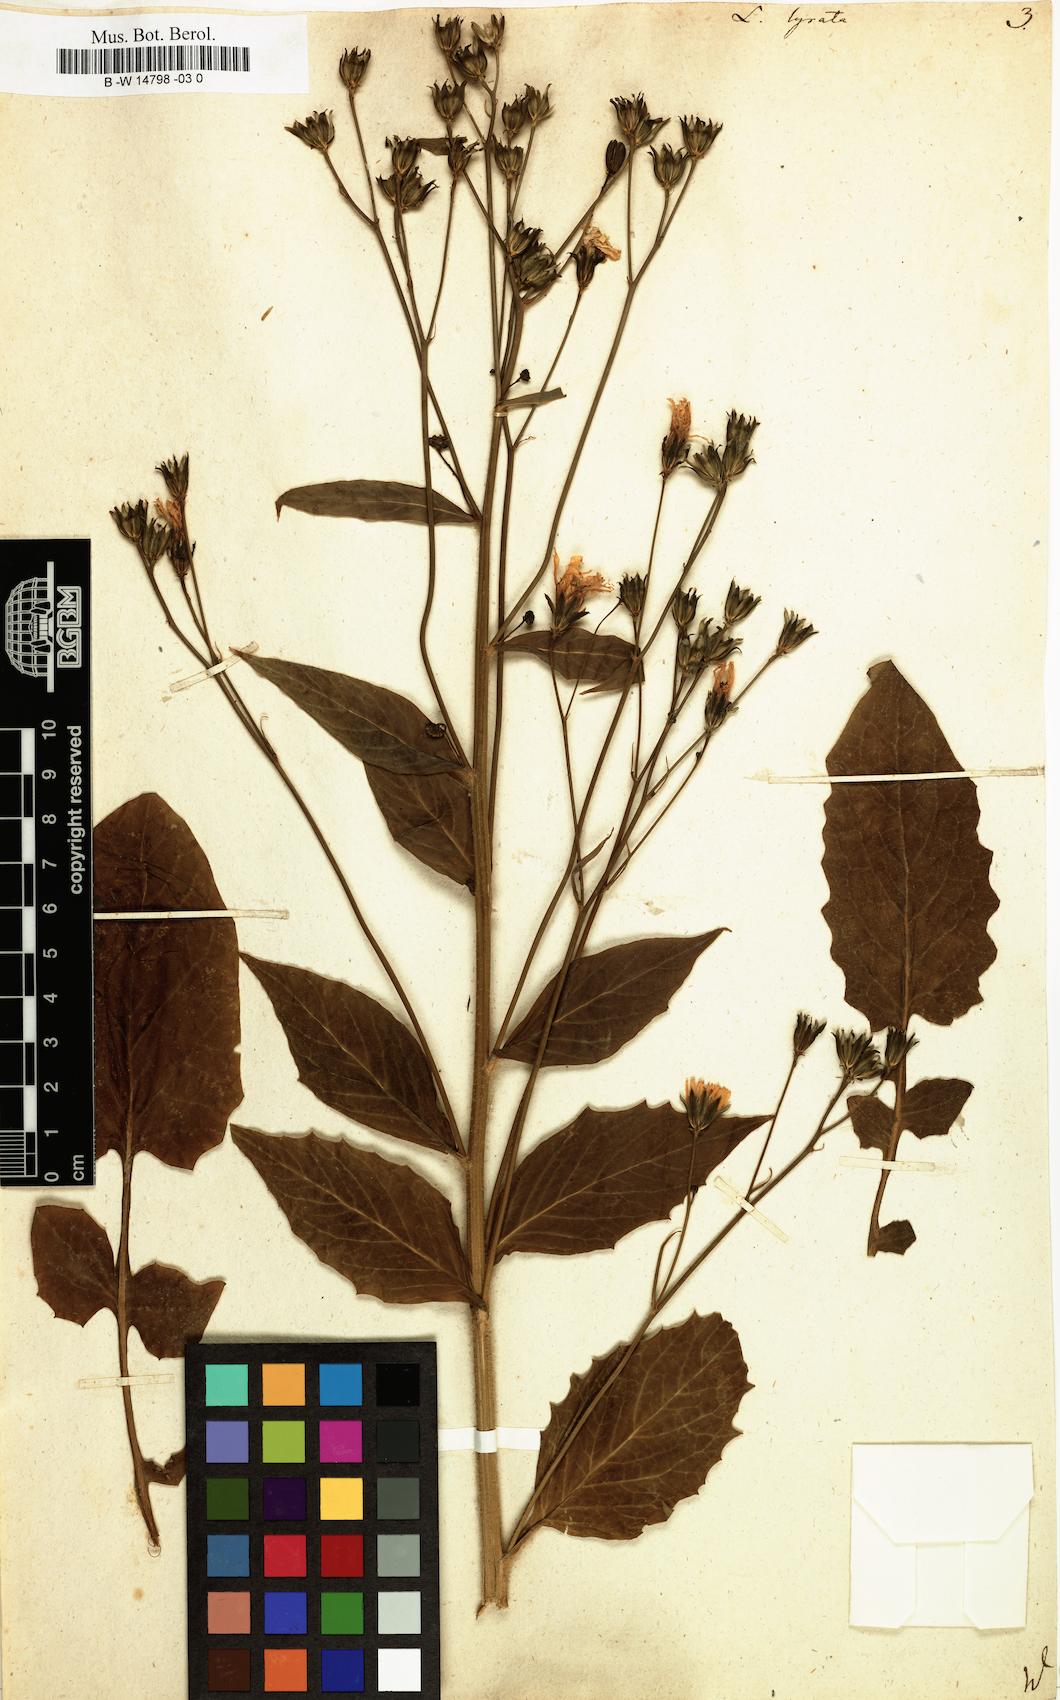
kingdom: Plantae
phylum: Tracheophyta
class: Magnoliopsida
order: Asterales
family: Asteraceae
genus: Lapsana
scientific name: Lapsana communis
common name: Nipplewort
